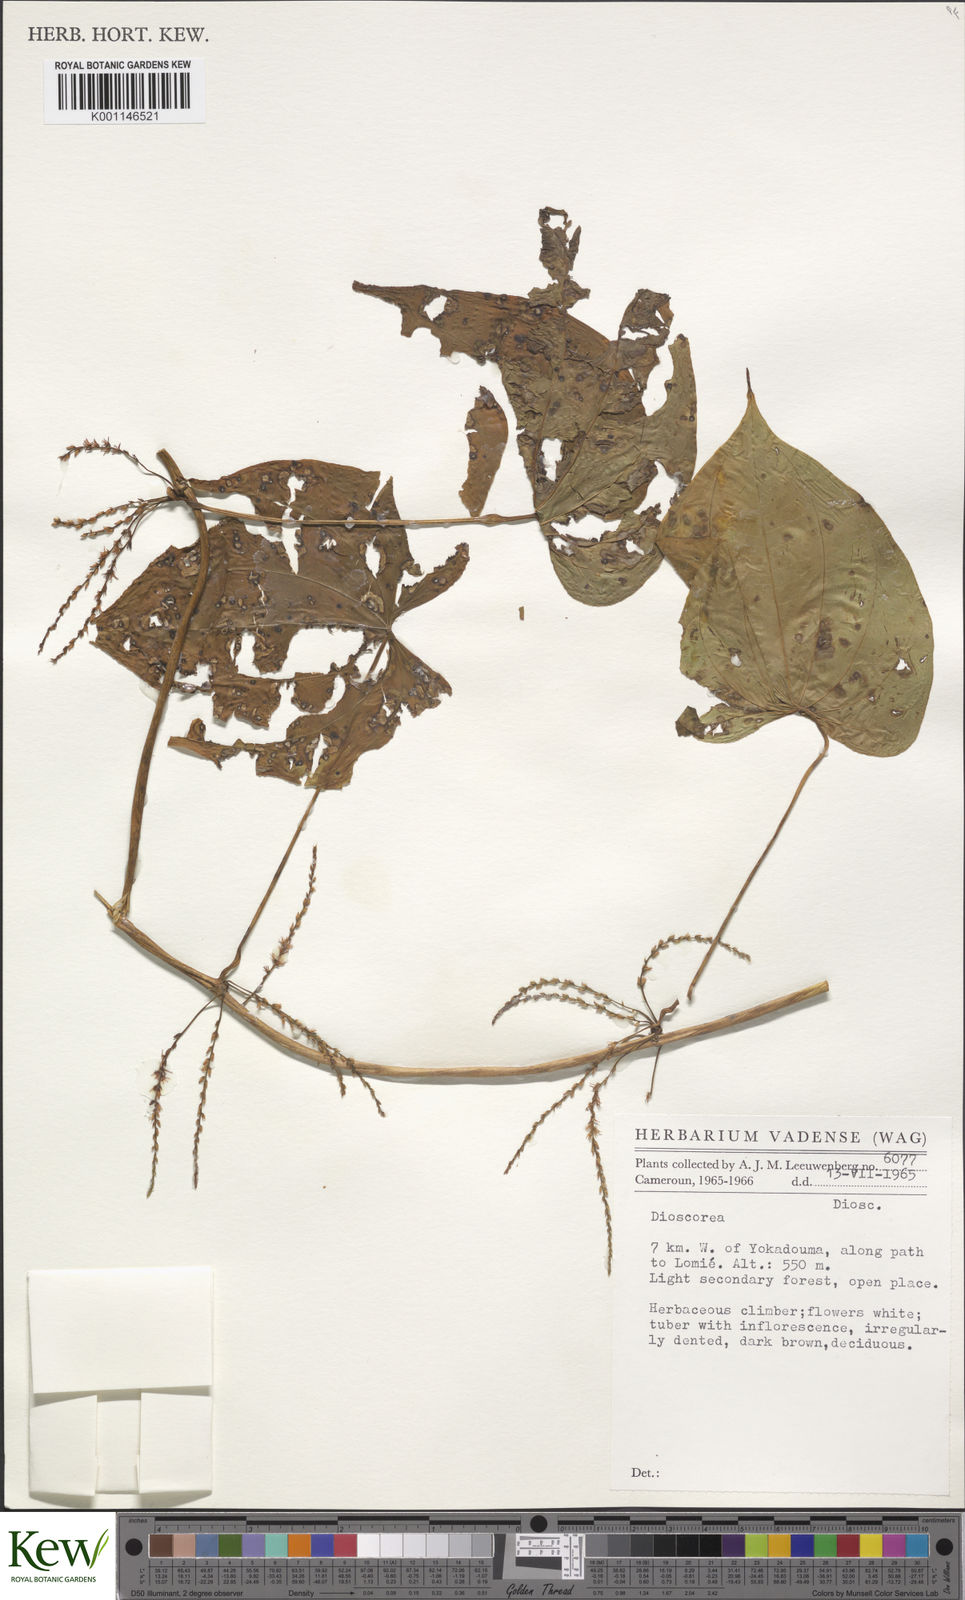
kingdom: Plantae
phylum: Tracheophyta
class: Liliopsida
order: Dioscoreales
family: Dioscoreaceae
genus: Dioscorea
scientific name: Dioscorea
